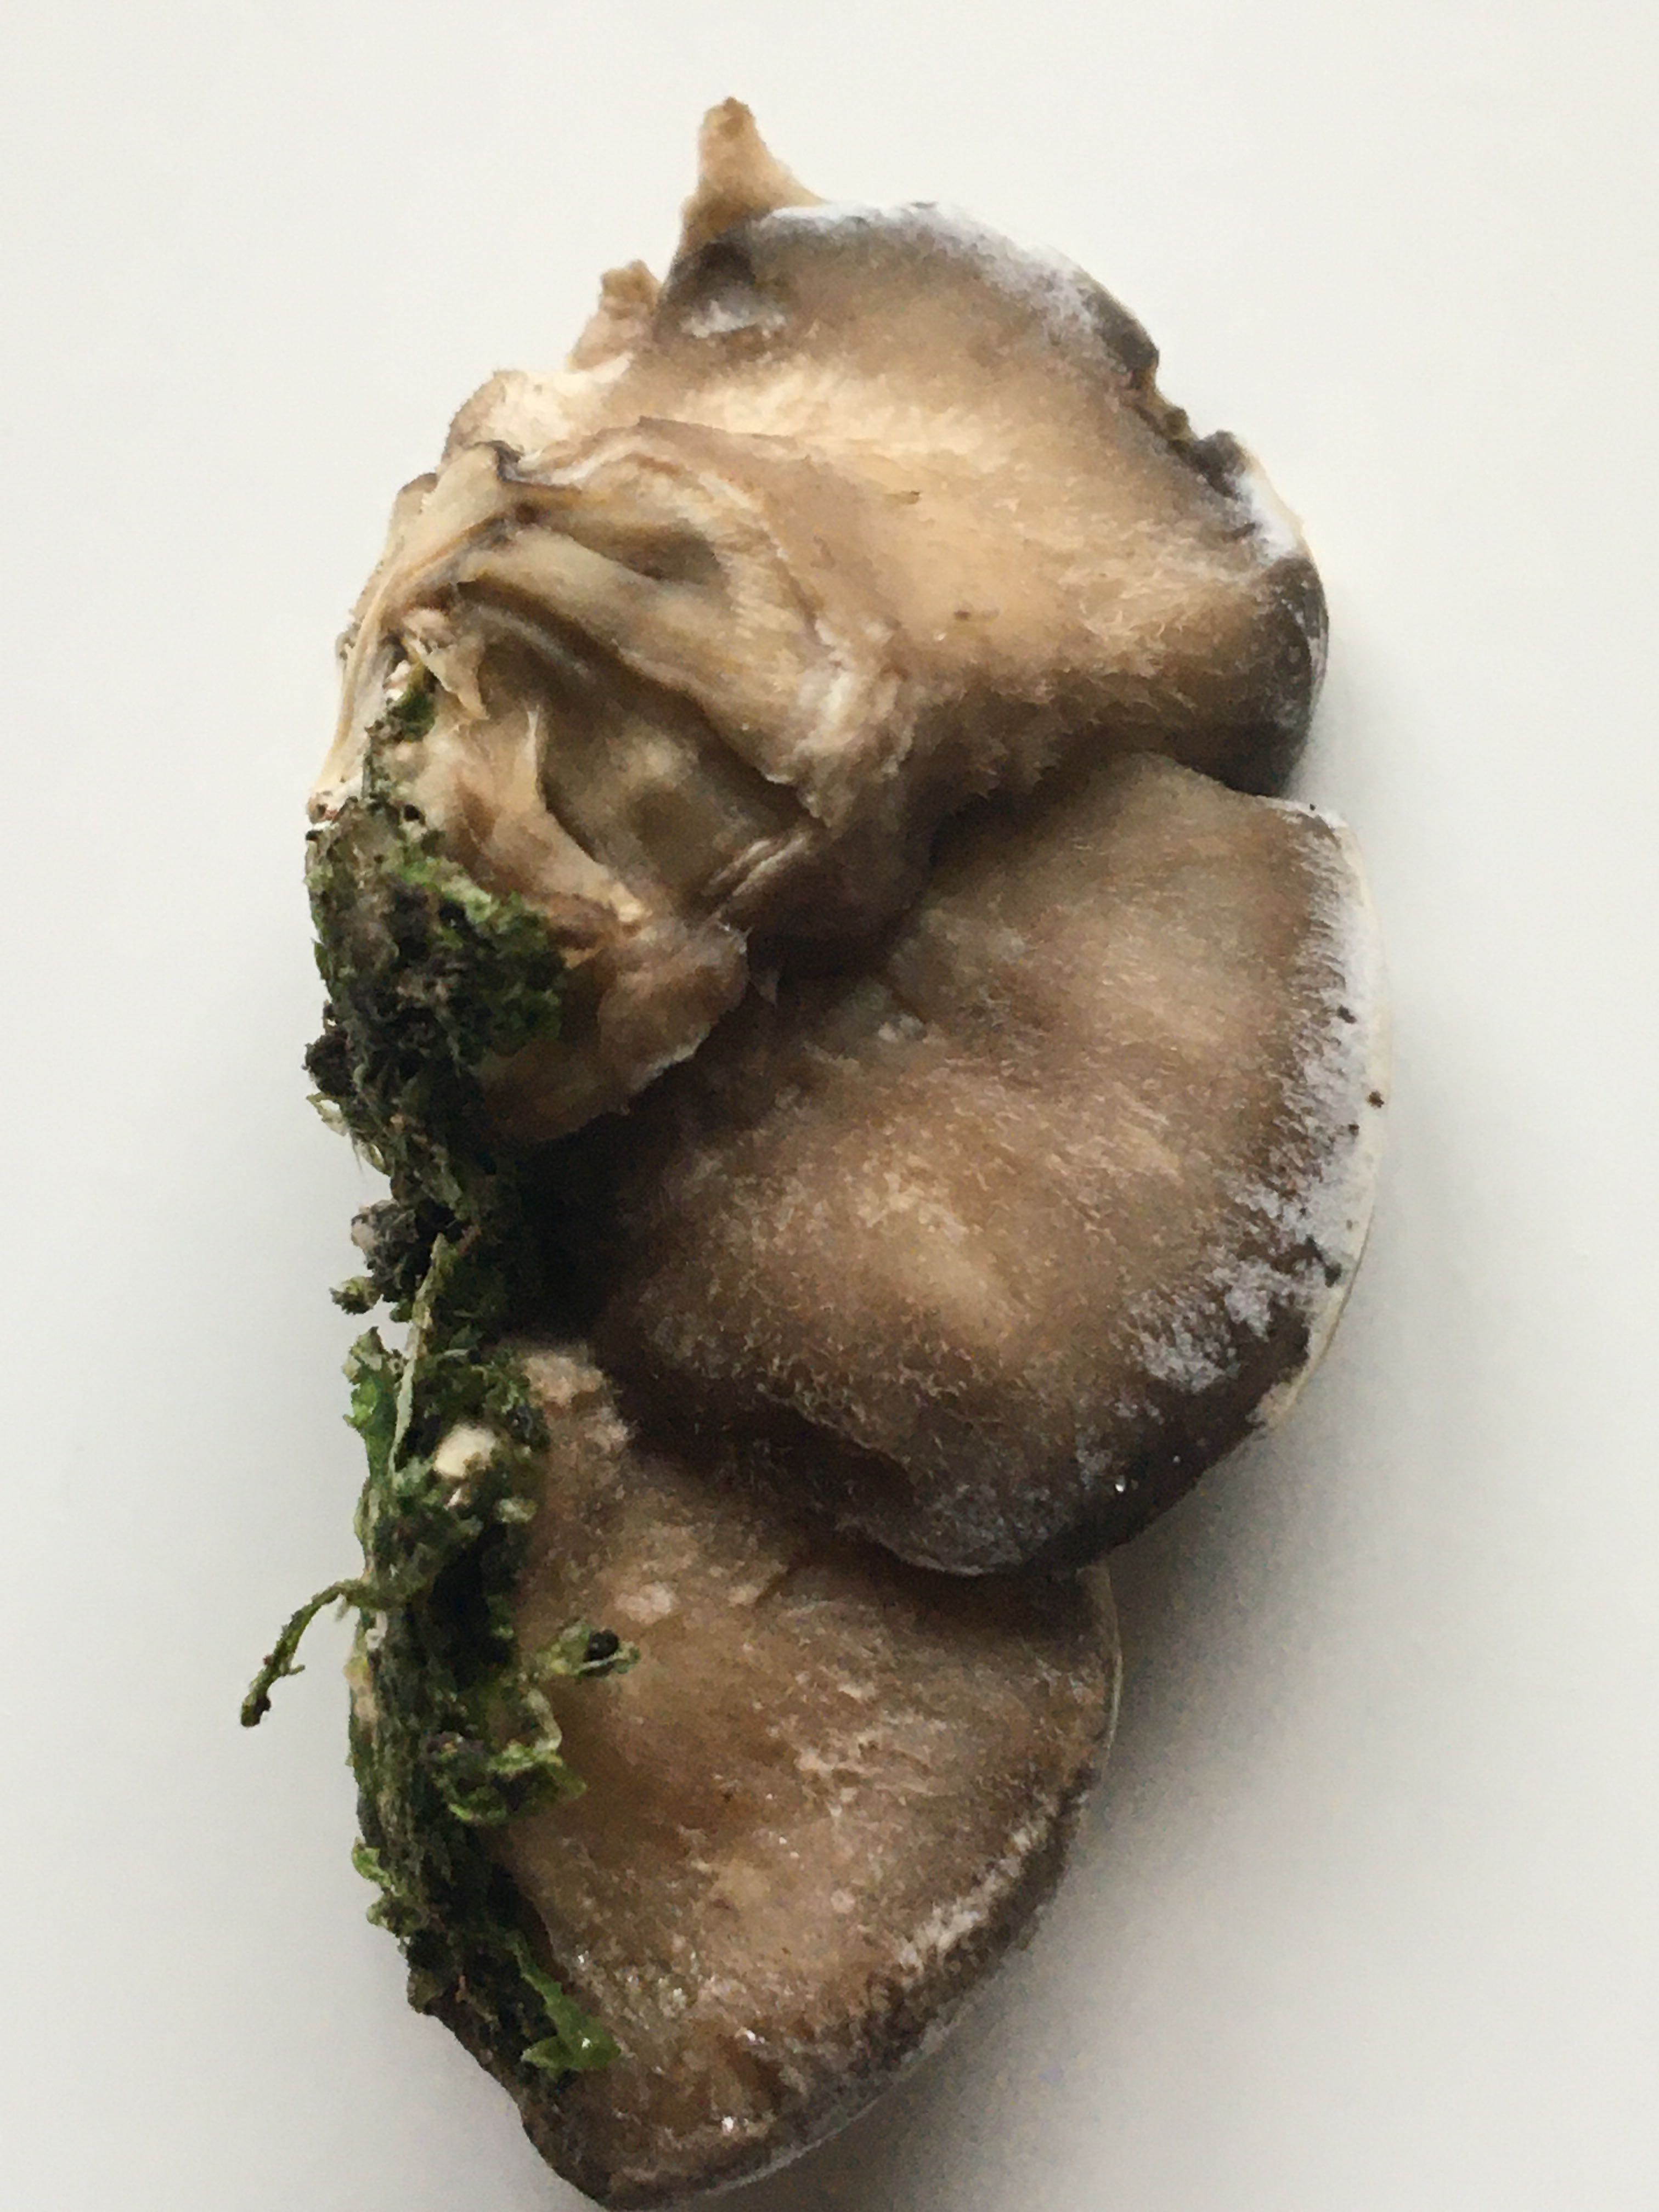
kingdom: Fungi
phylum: Basidiomycota
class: Agaricomycetes
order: Polyporales
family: Phanerochaetaceae
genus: Bjerkandera
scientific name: Bjerkandera adusta
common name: sveden sodporesvamp
